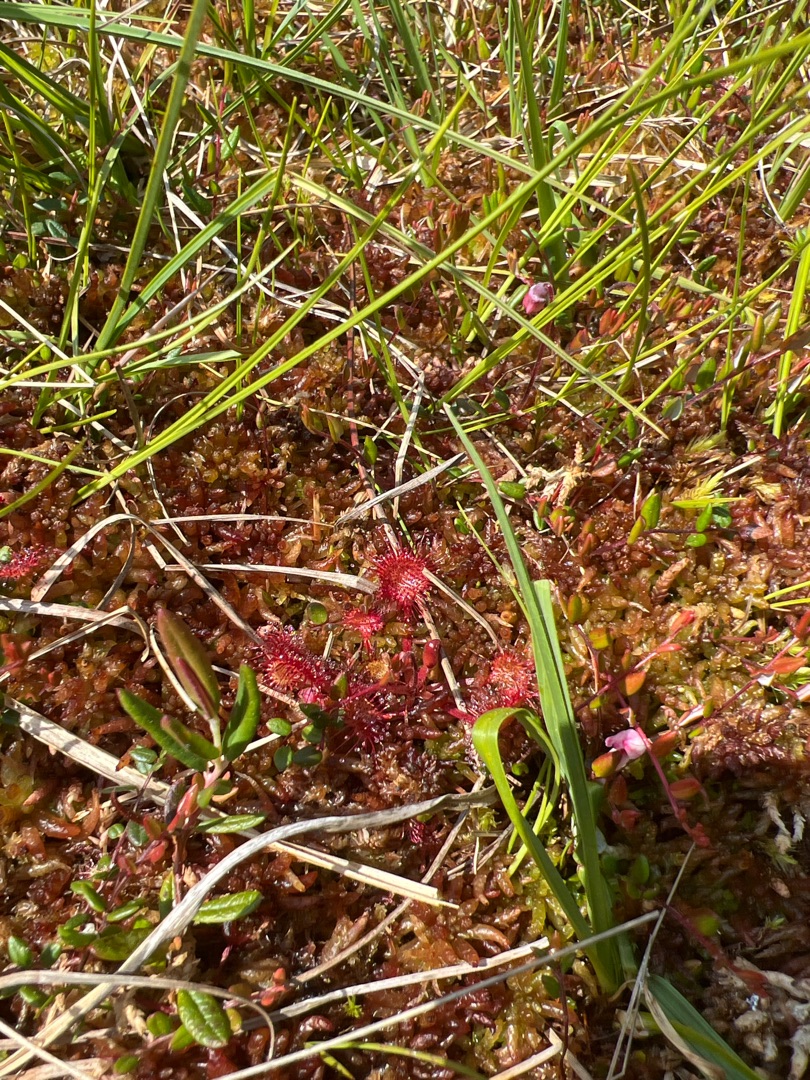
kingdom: Plantae
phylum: Tracheophyta
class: Magnoliopsida
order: Caryophyllales
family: Droseraceae
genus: Drosera
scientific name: Drosera rotundifolia
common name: Rundbladet soldug
